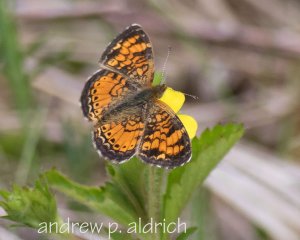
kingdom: Animalia
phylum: Arthropoda
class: Insecta
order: Lepidoptera
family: Nymphalidae
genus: Phyciodes
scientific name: Phyciodes
